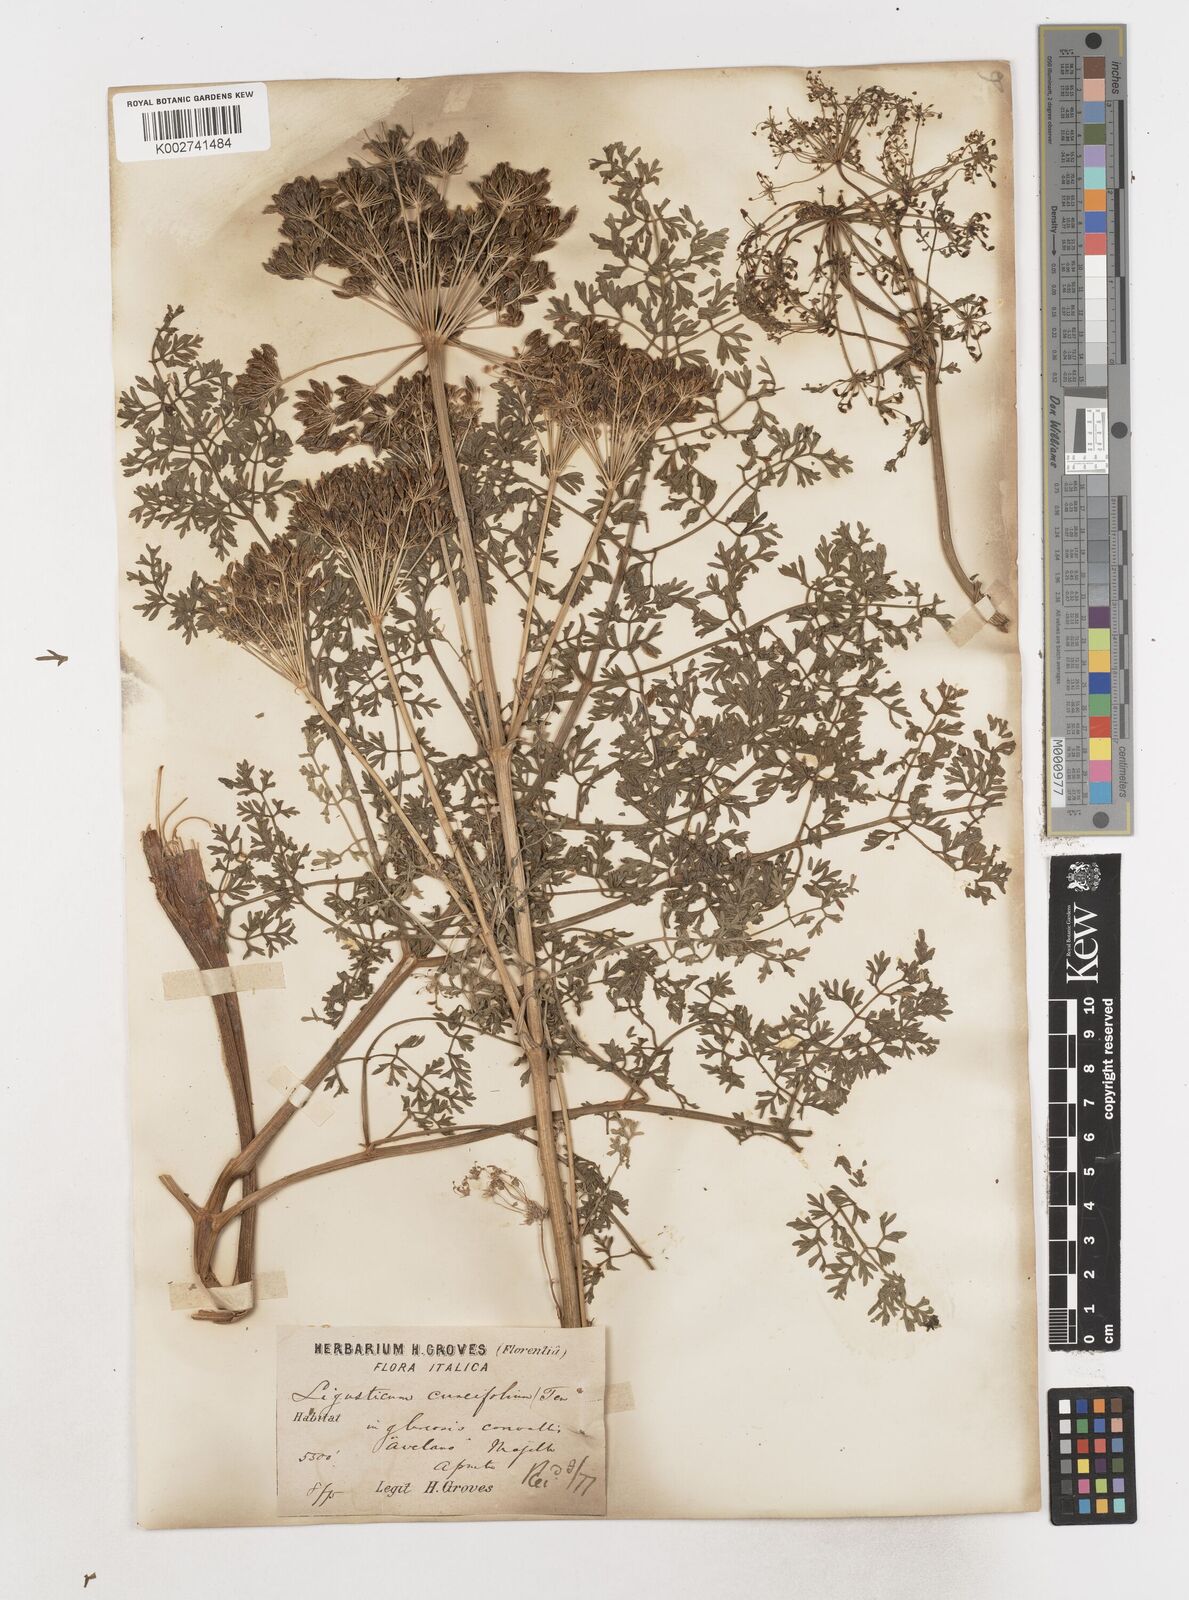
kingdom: Plantae
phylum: Tracheophyta
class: Magnoliopsida
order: Apiales
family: Apiaceae
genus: Coristospermum
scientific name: Coristospermum cuneifolium
